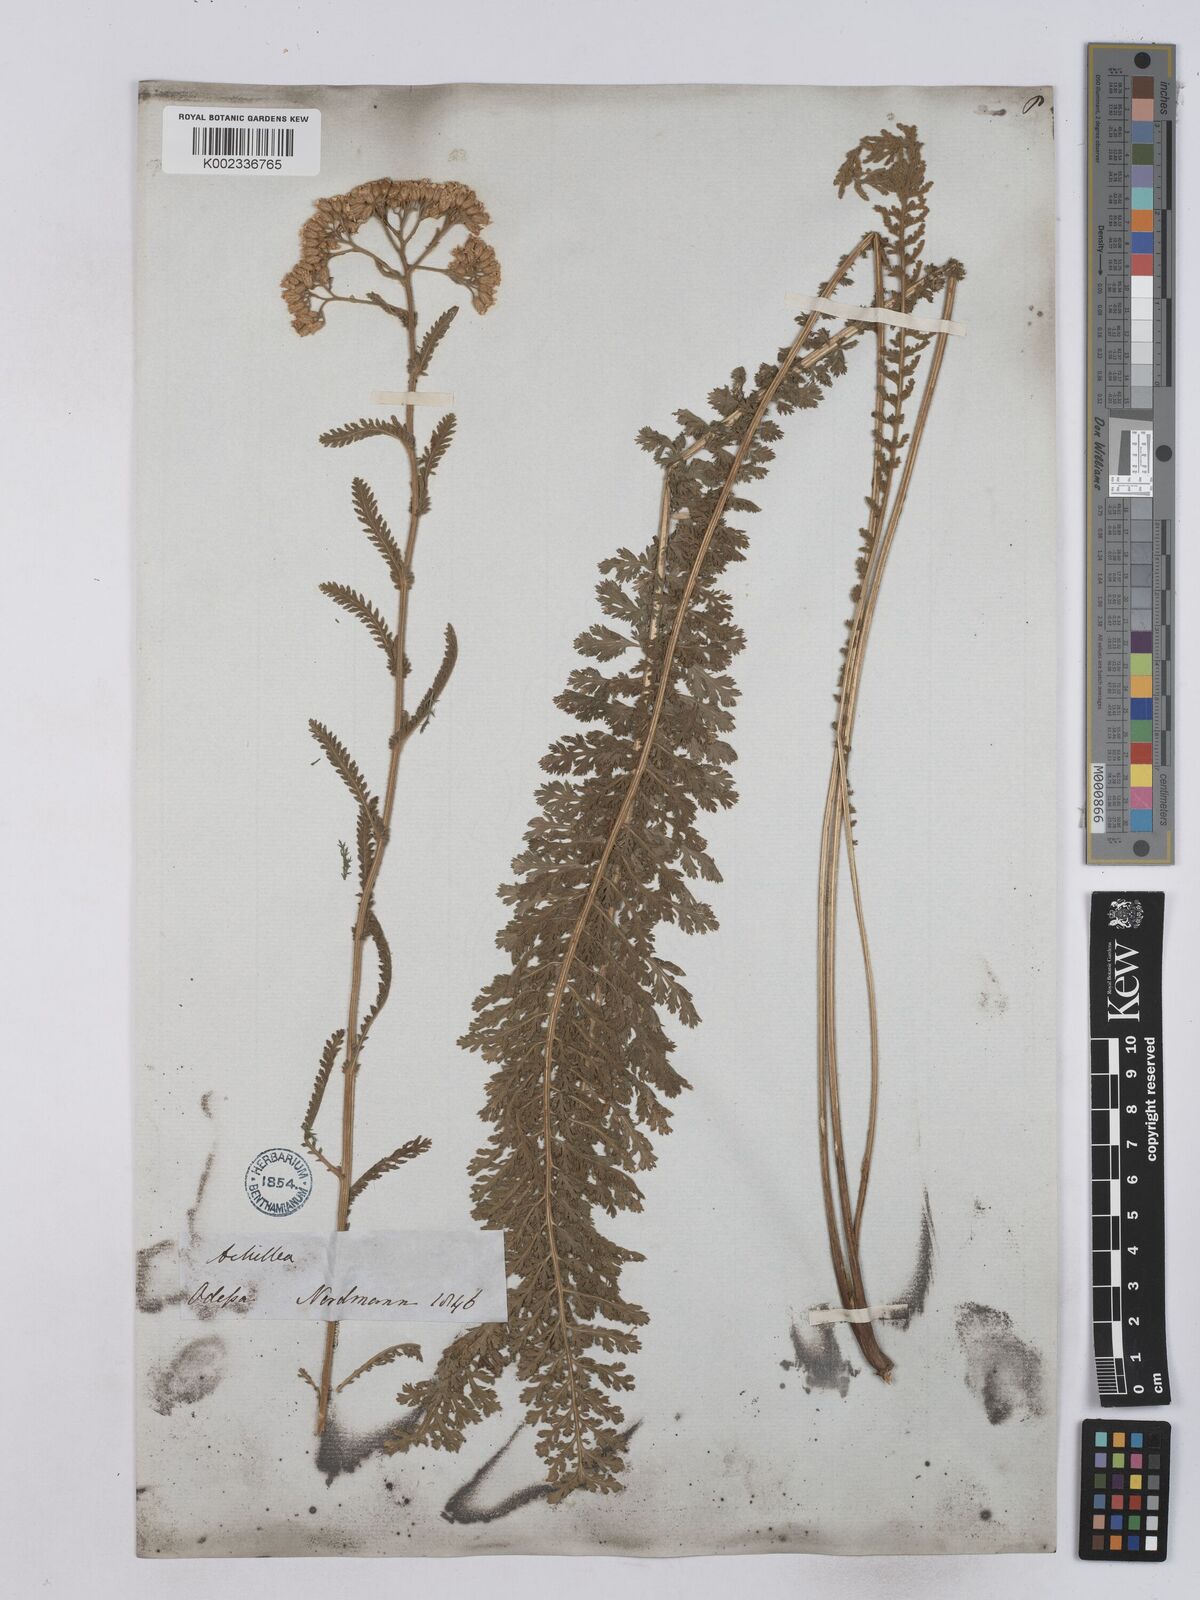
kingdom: Plantae
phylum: Tracheophyta
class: Magnoliopsida
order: Asterales
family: Asteraceae
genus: Achillea
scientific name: Achillea collina
